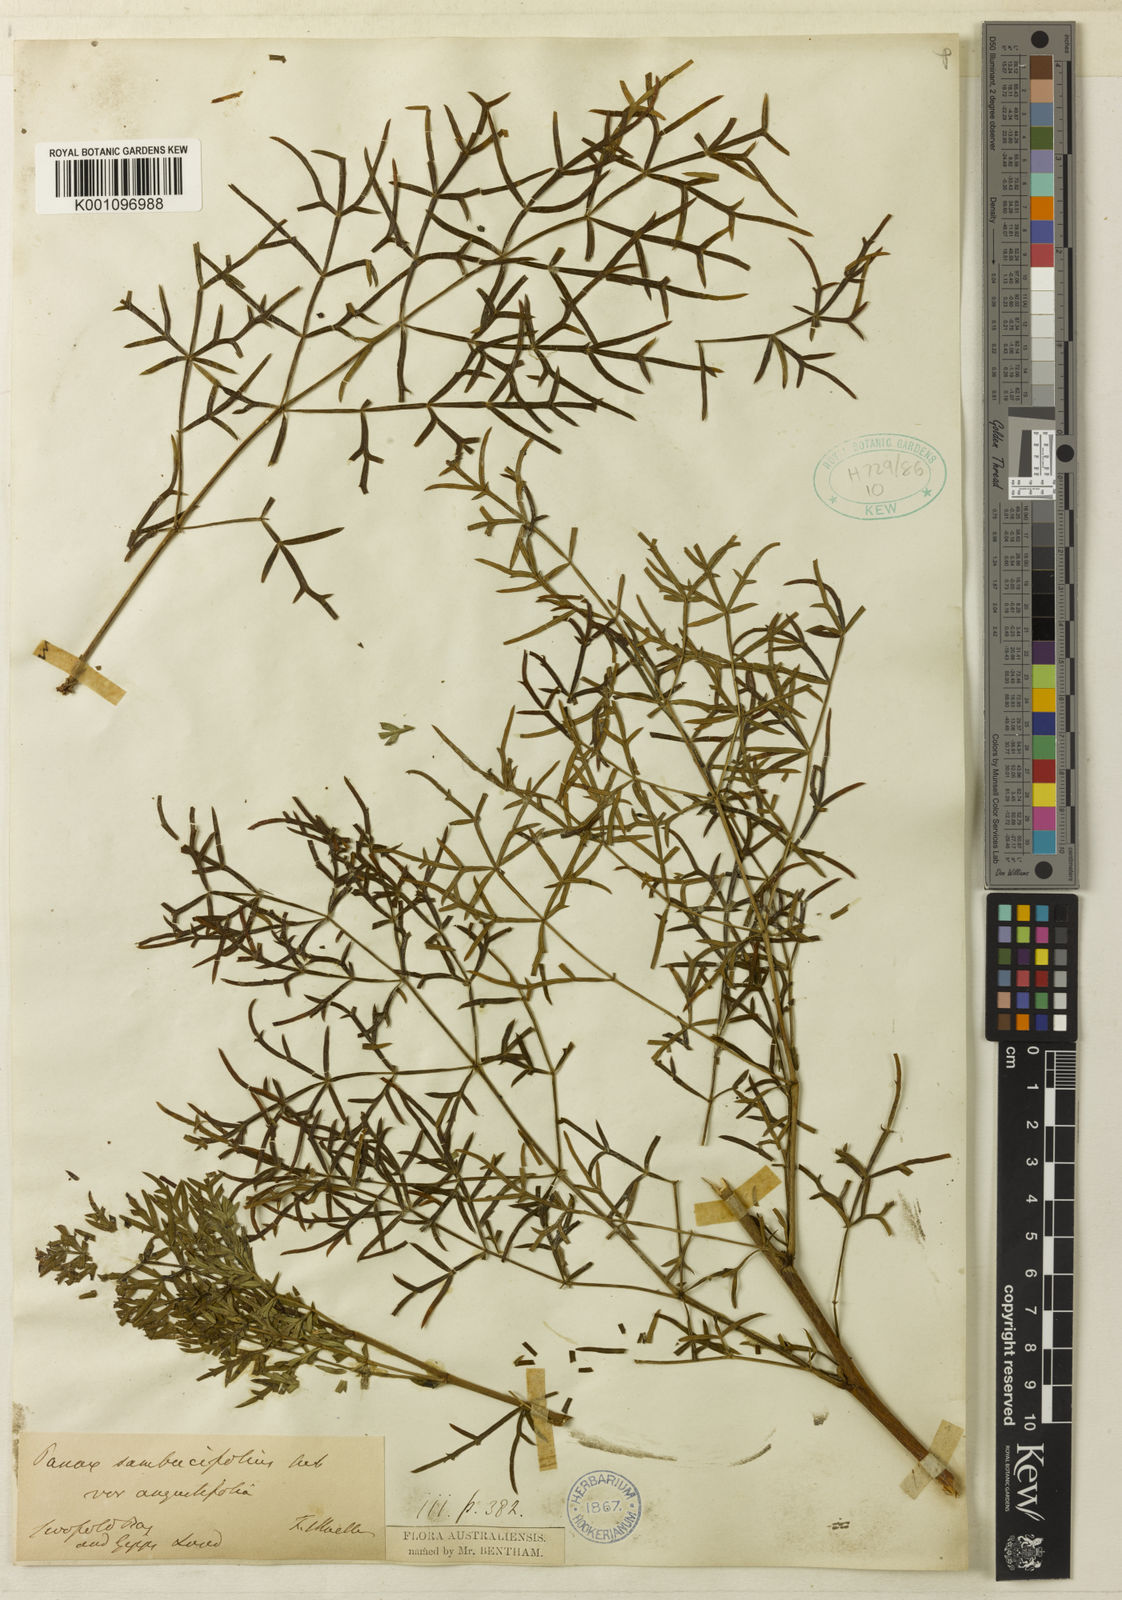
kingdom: Plantae
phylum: Tracheophyta
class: Magnoliopsida
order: Apiales
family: Araliaceae
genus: Polyscias
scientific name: Polyscias sambucifolia
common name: Elderberry-ash
